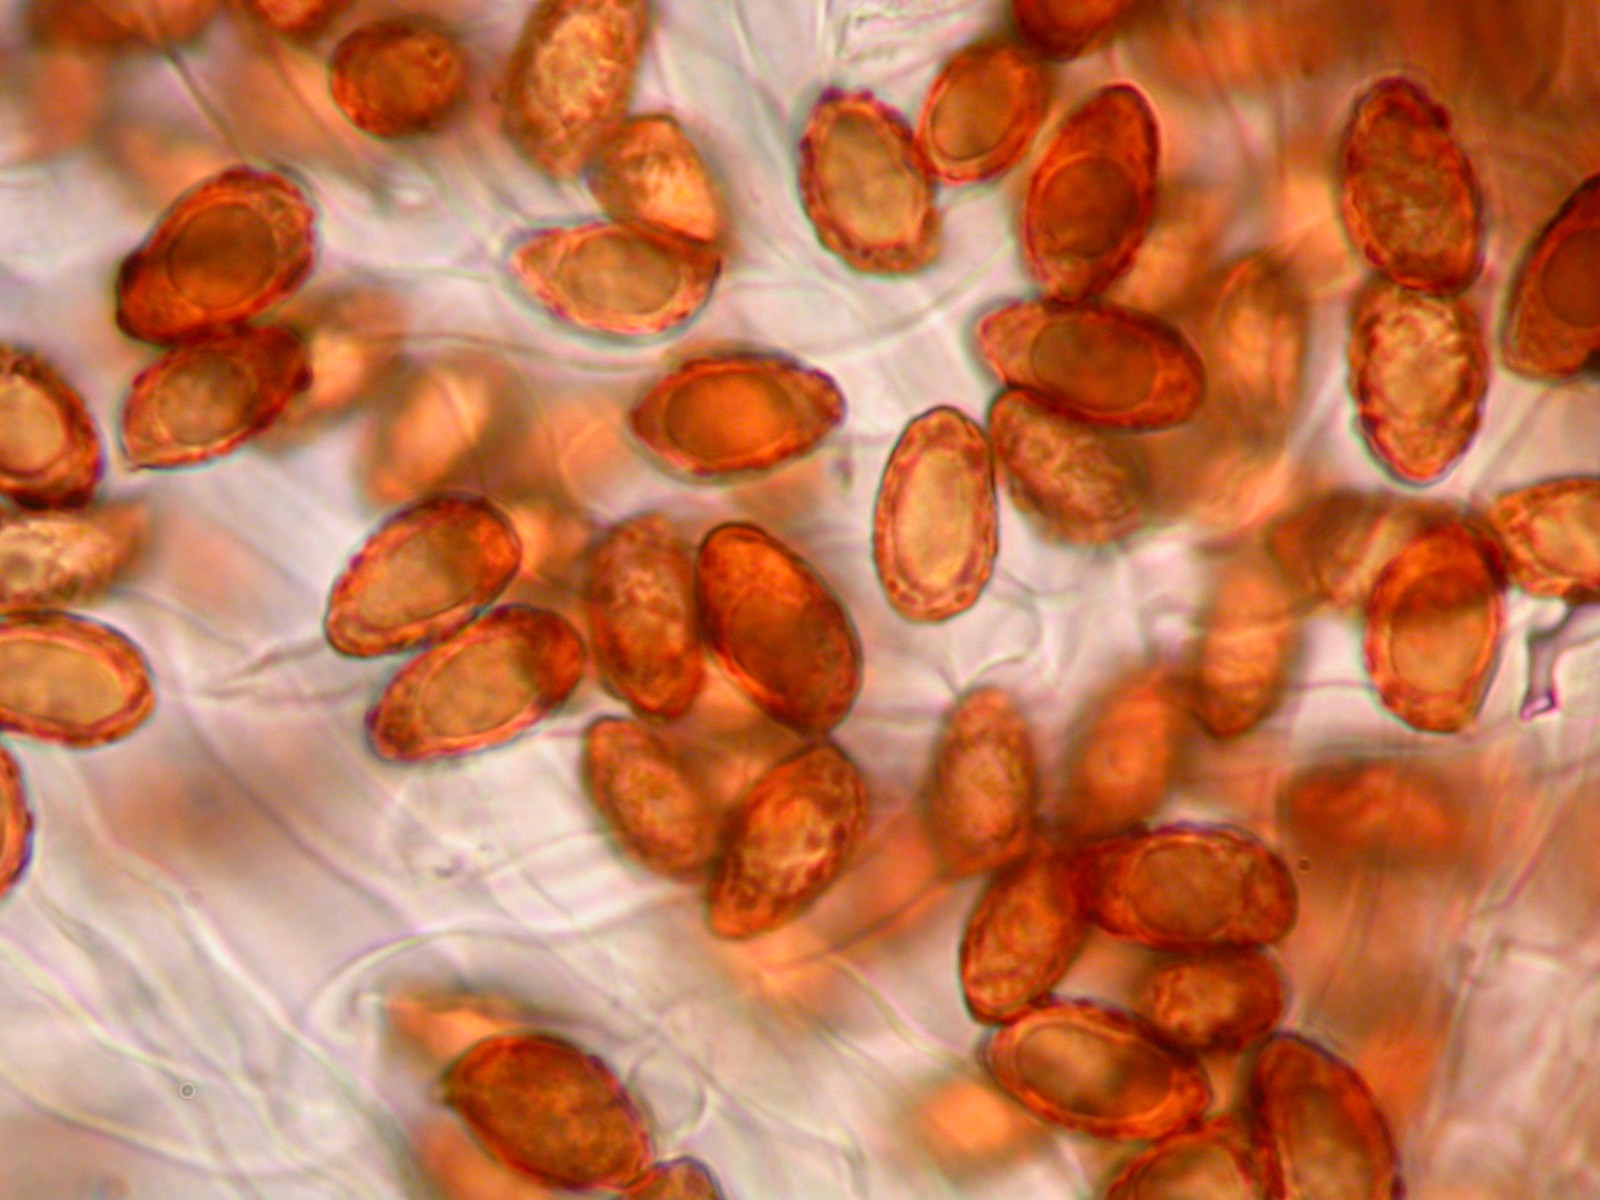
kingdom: Fungi
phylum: Basidiomycota
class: Agaricomycetes
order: Agaricales
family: Cortinariaceae
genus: Cortinarius
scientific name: Cortinarius alpinus
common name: Mountain webcap
